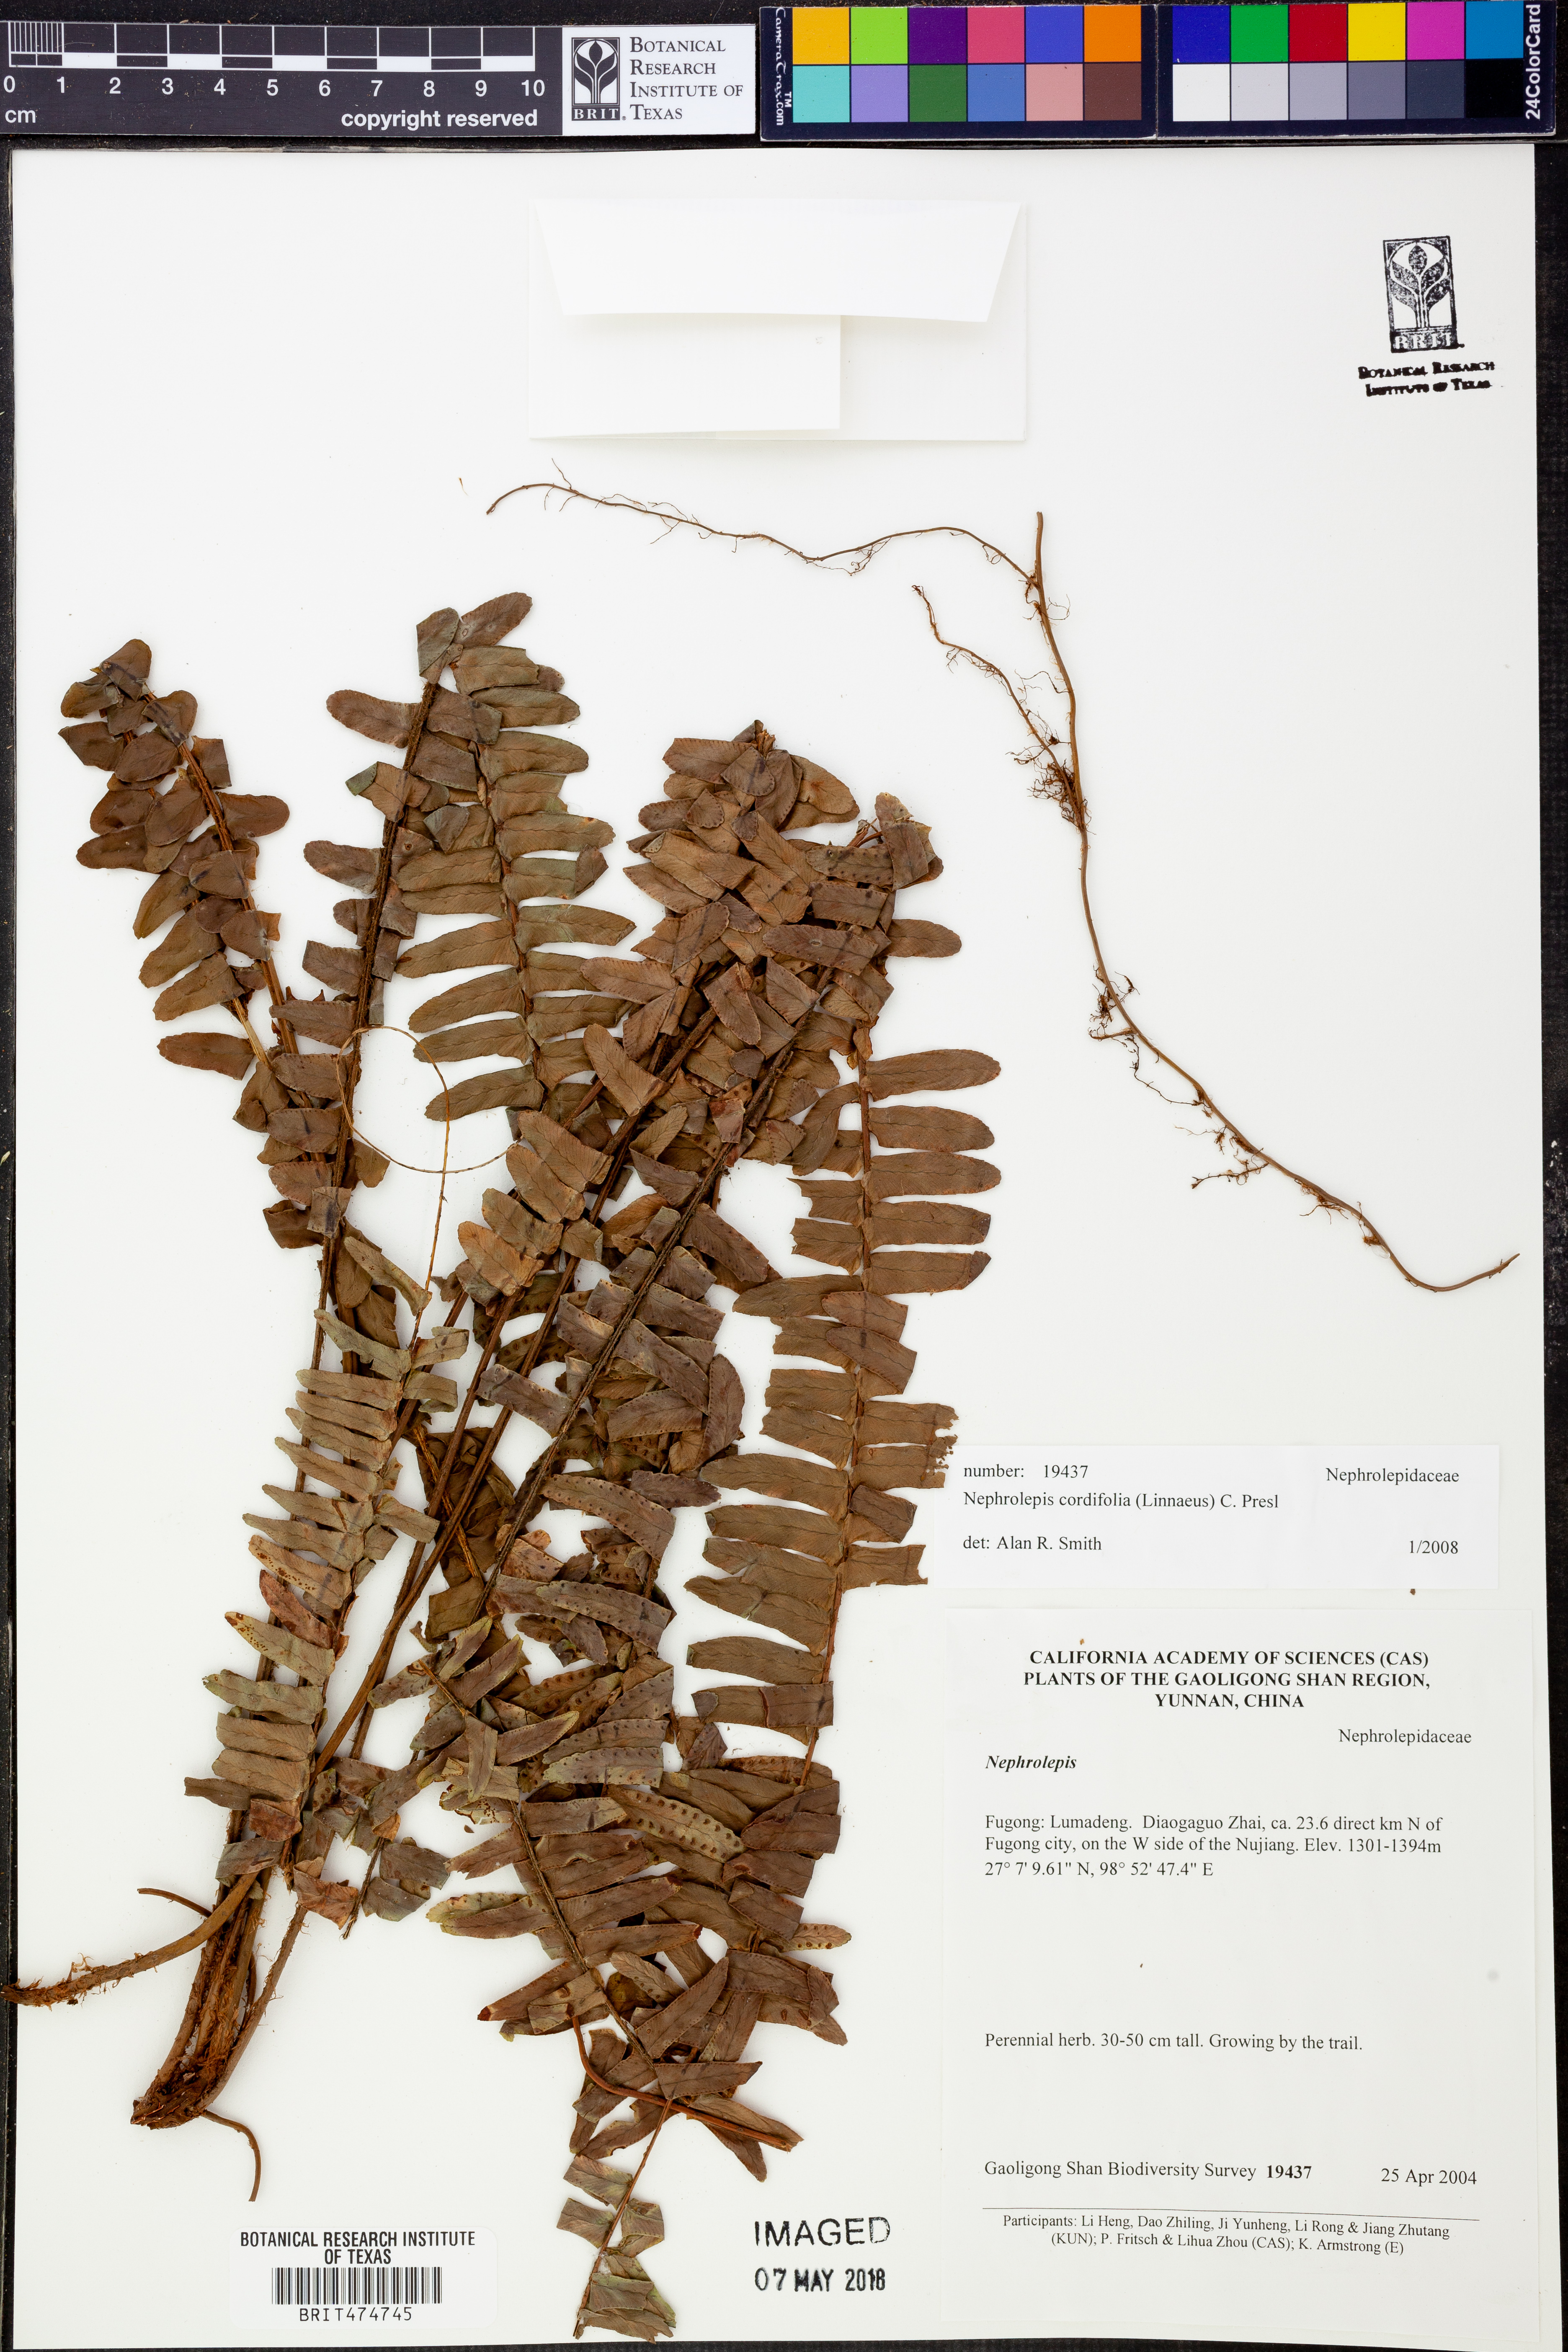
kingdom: Plantae
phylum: Tracheophyta
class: Polypodiopsida
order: Polypodiales
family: Nephrolepidaceae
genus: Nephrolepis
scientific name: Nephrolepis cordifolia
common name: Narrow swordfern
